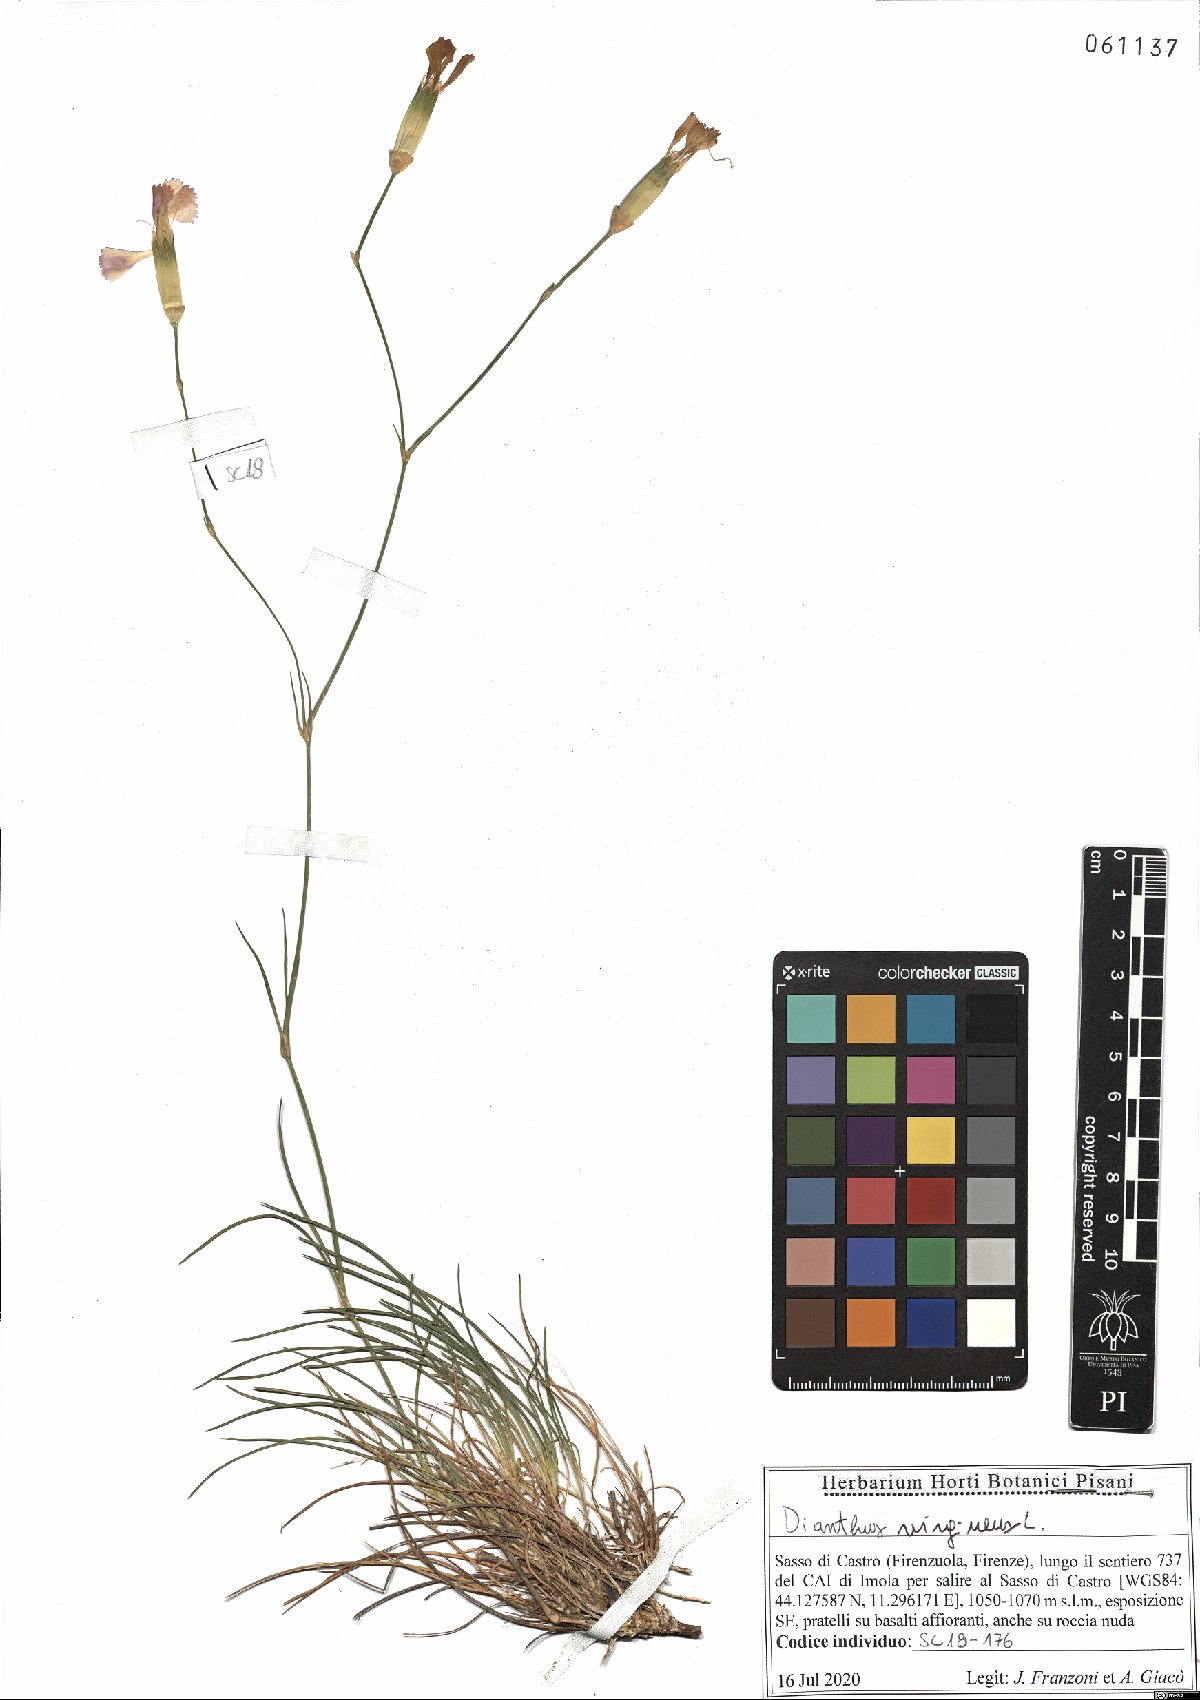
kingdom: Plantae
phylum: Tracheophyta
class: Magnoliopsida
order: Caryophyllales
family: Caryophyllaceae
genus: Dianthus
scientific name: Dianthus virgineus
